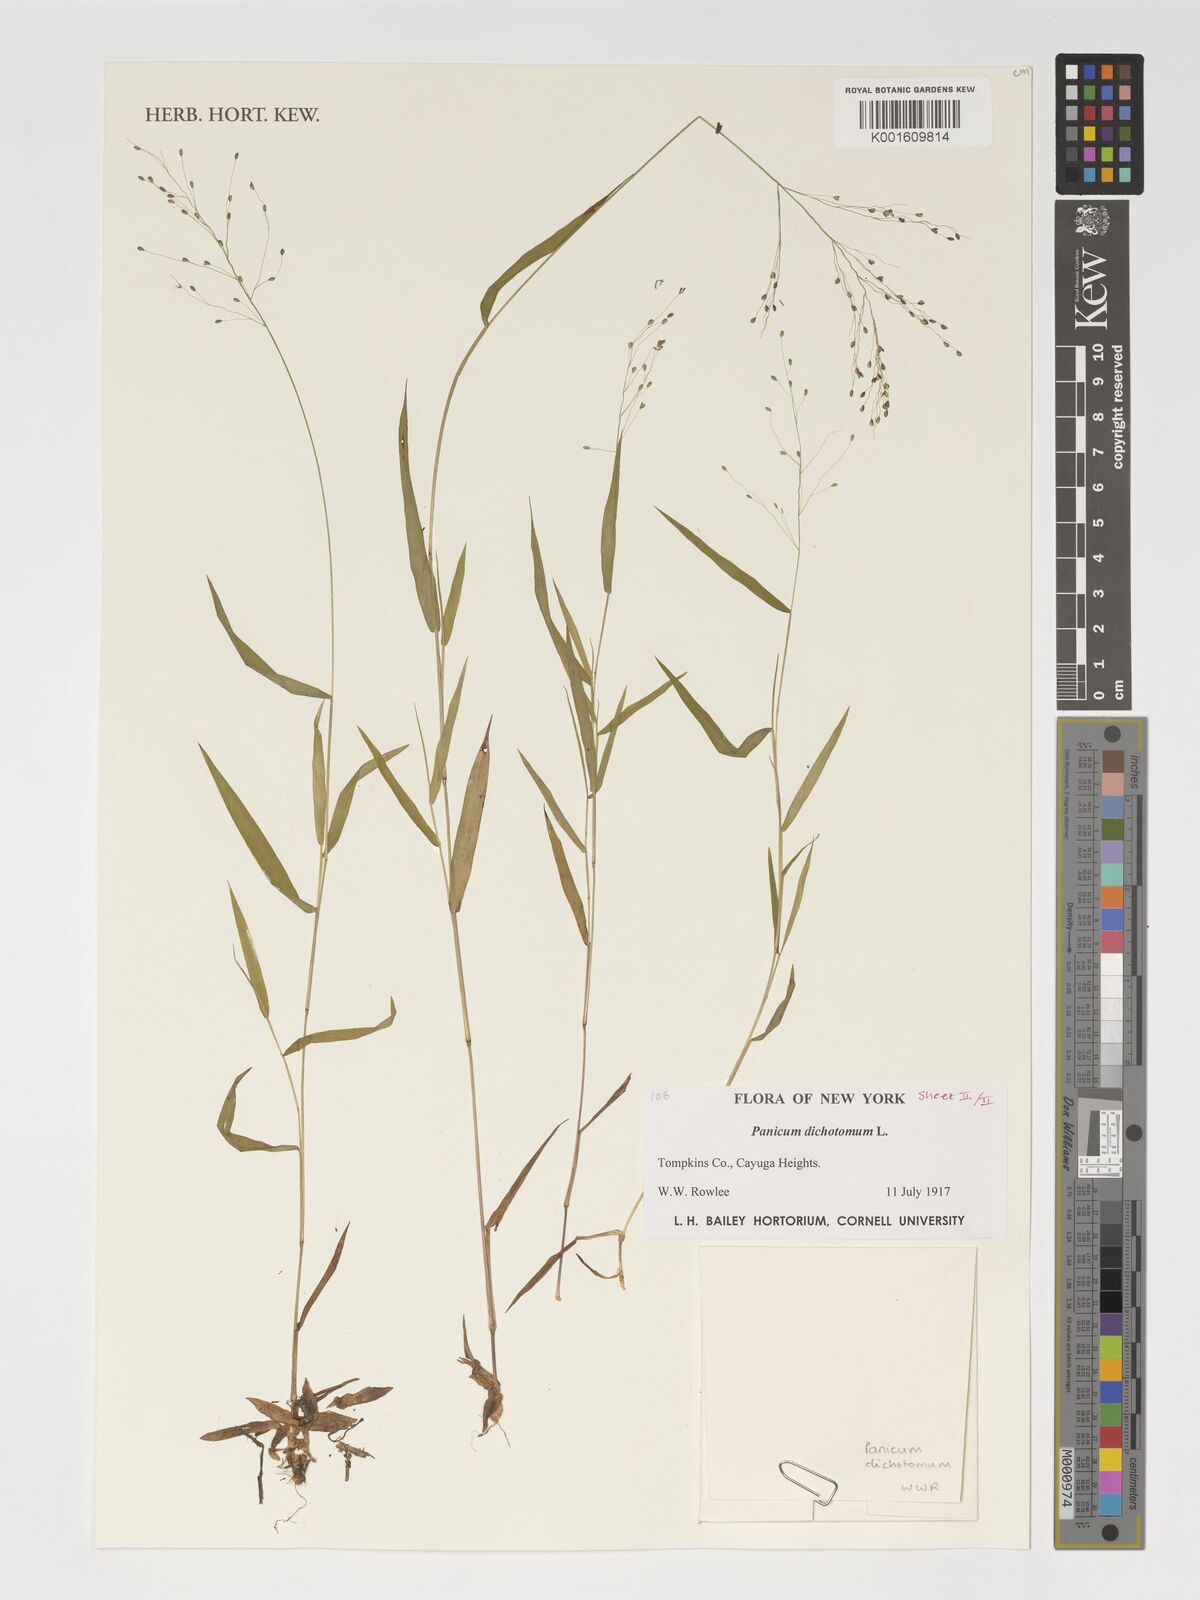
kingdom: Plantae
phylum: Tracheophyta
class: Liliopsida
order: Poales
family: Poaceae
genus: Dichanthelium
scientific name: Dichanthelium dichotomum
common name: Cypress panicgrass
